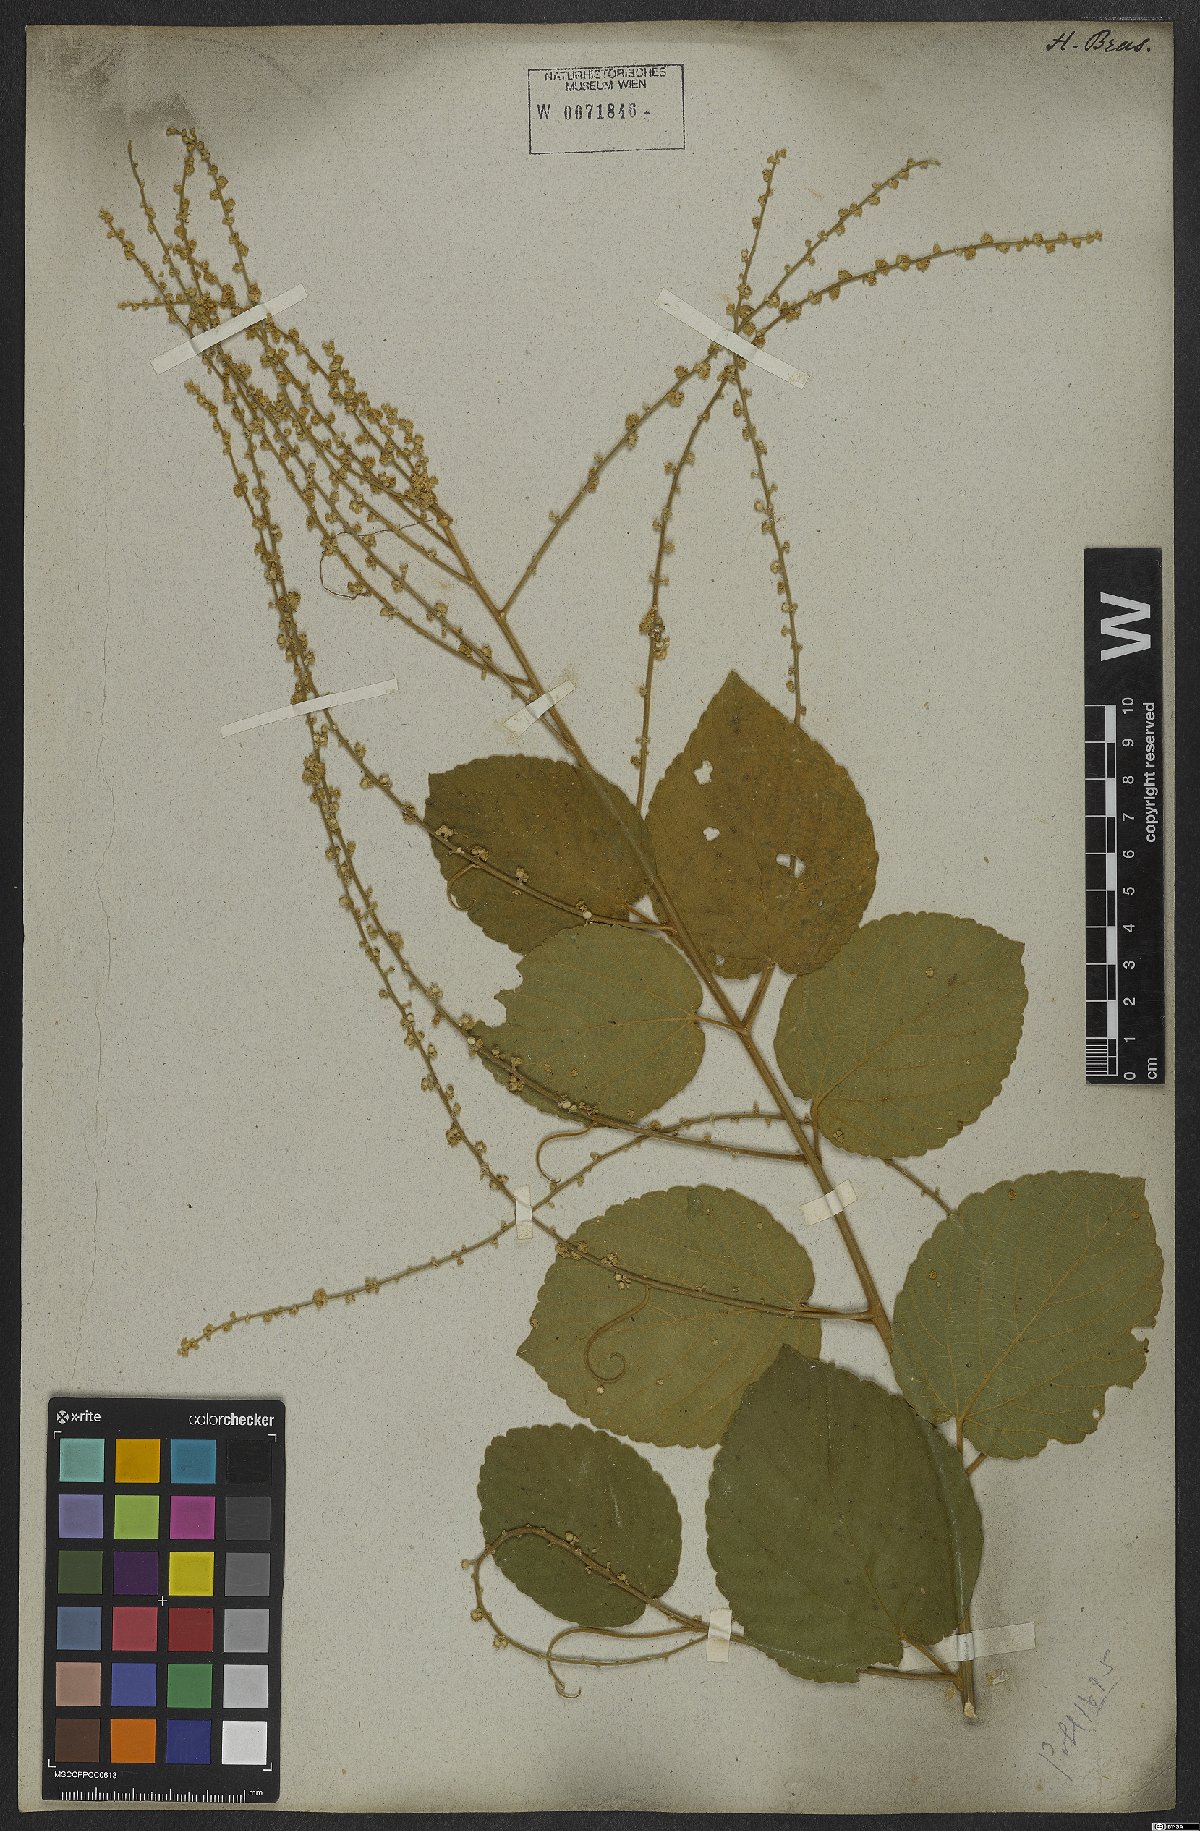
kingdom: Plantae
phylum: Tracheophyta
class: Magnoliopsida
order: Rosales
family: Rhamnaceae
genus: Gouania
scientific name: Gouania latifolia
